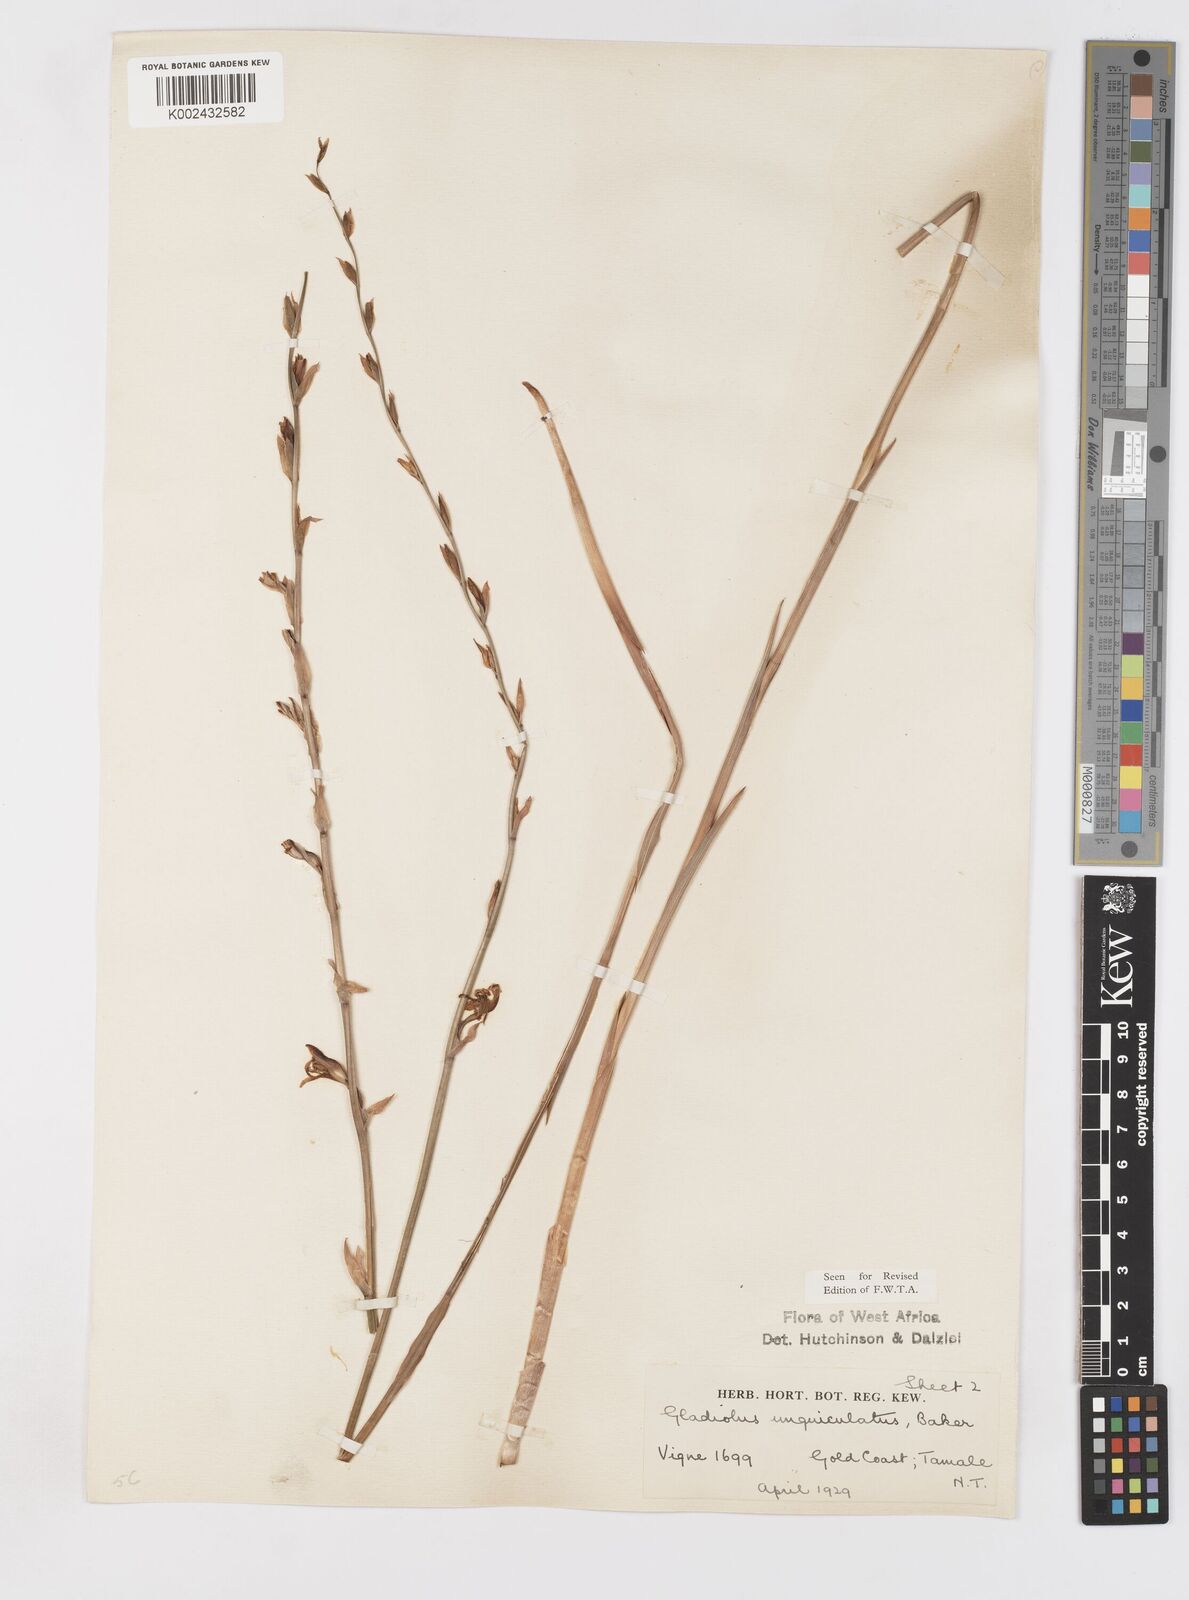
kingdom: Plantae
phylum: Tracheophyta
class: Liliopsida
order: Asparagales
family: Iridaceae
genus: Gladiolus
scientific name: Gladiolus unguiculatus
